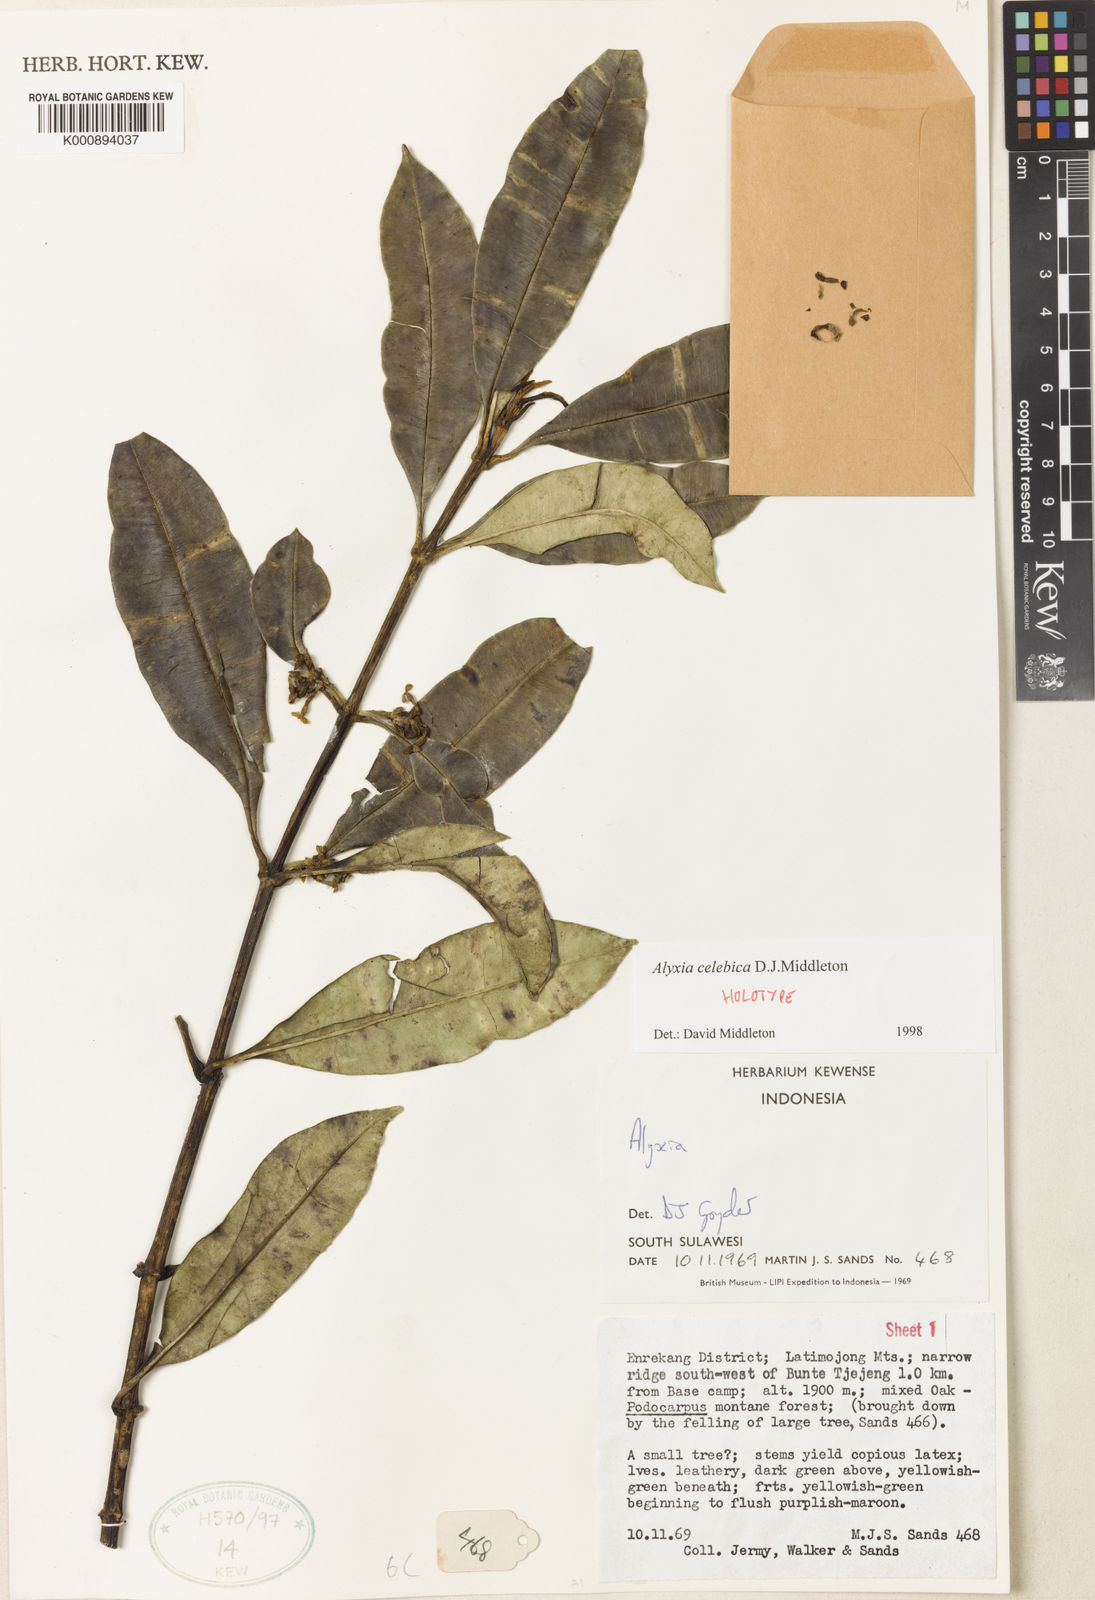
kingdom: Plantae
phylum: Tracheophyta
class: Magnoliopsida
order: Gentianales
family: Apocynaceae
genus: Alyxia
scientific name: Alyxia celebica
